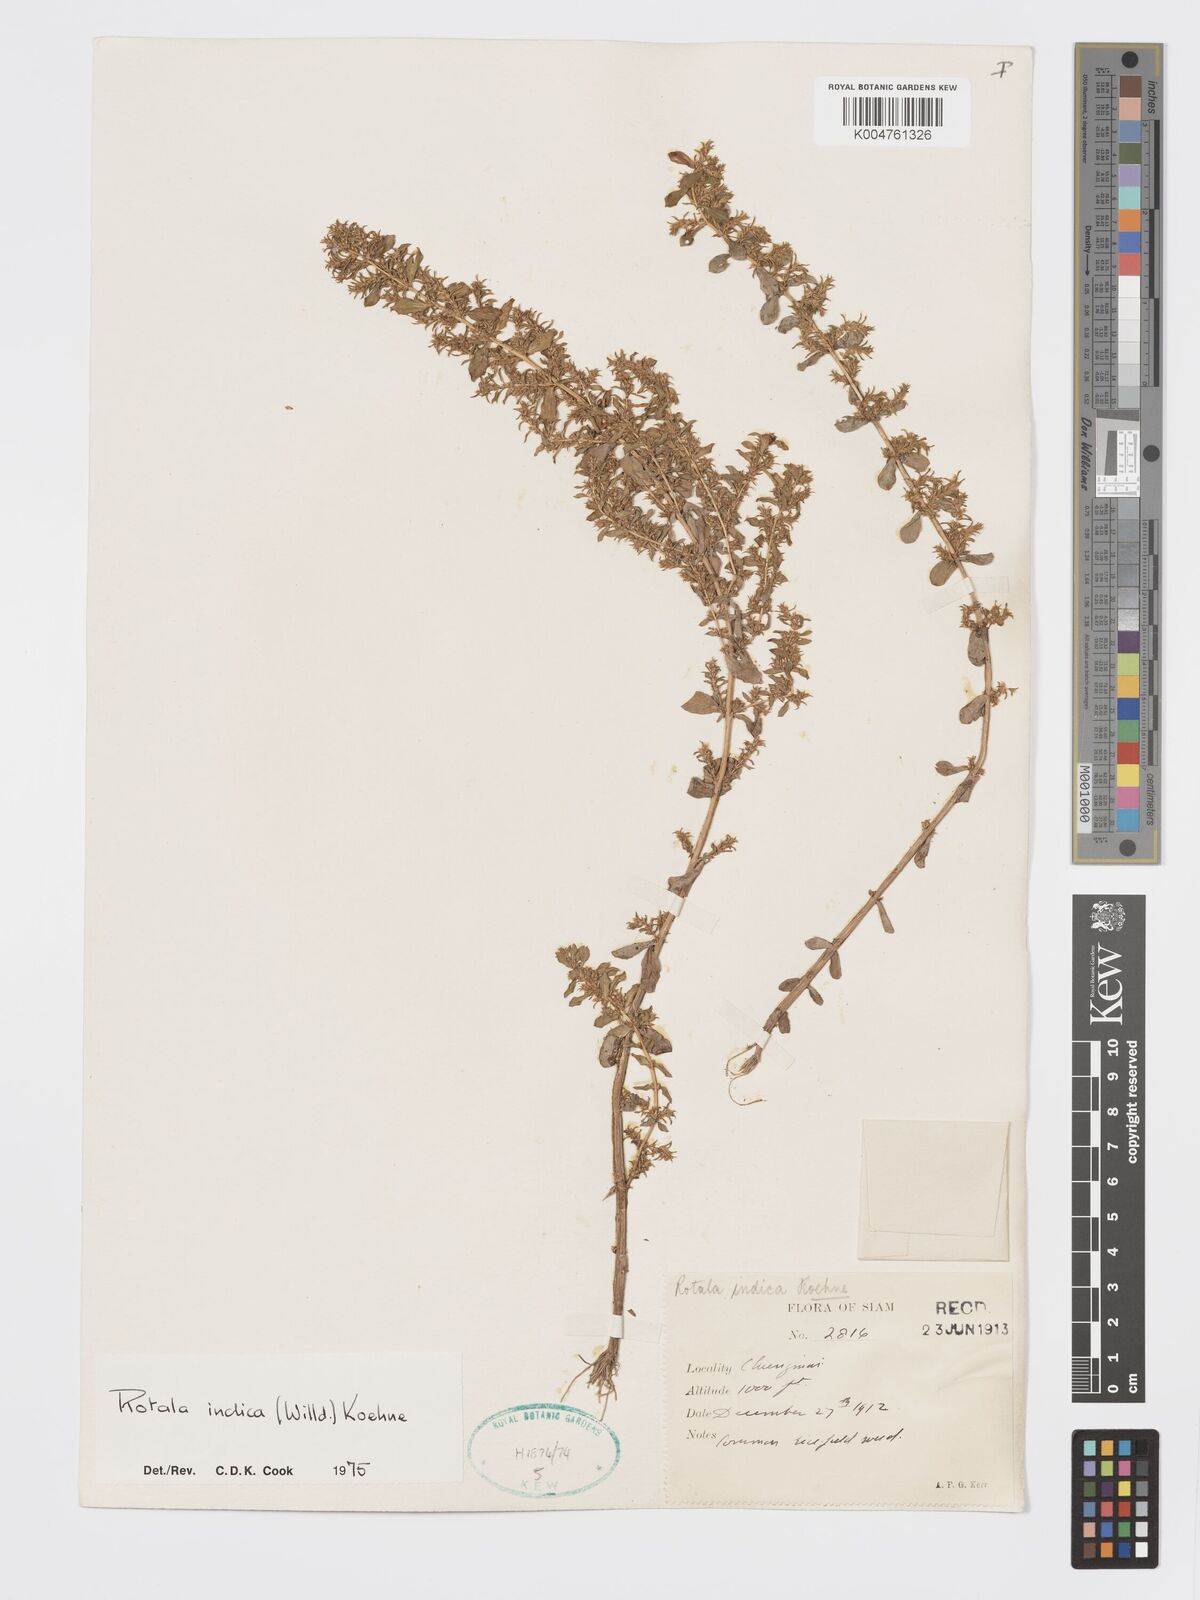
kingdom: Plantae
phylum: Tracheophyta
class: Magnoliopsida
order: Myrtales
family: Lythraceae
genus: Rotala
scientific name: Rotala indica
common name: Indian toothcup
